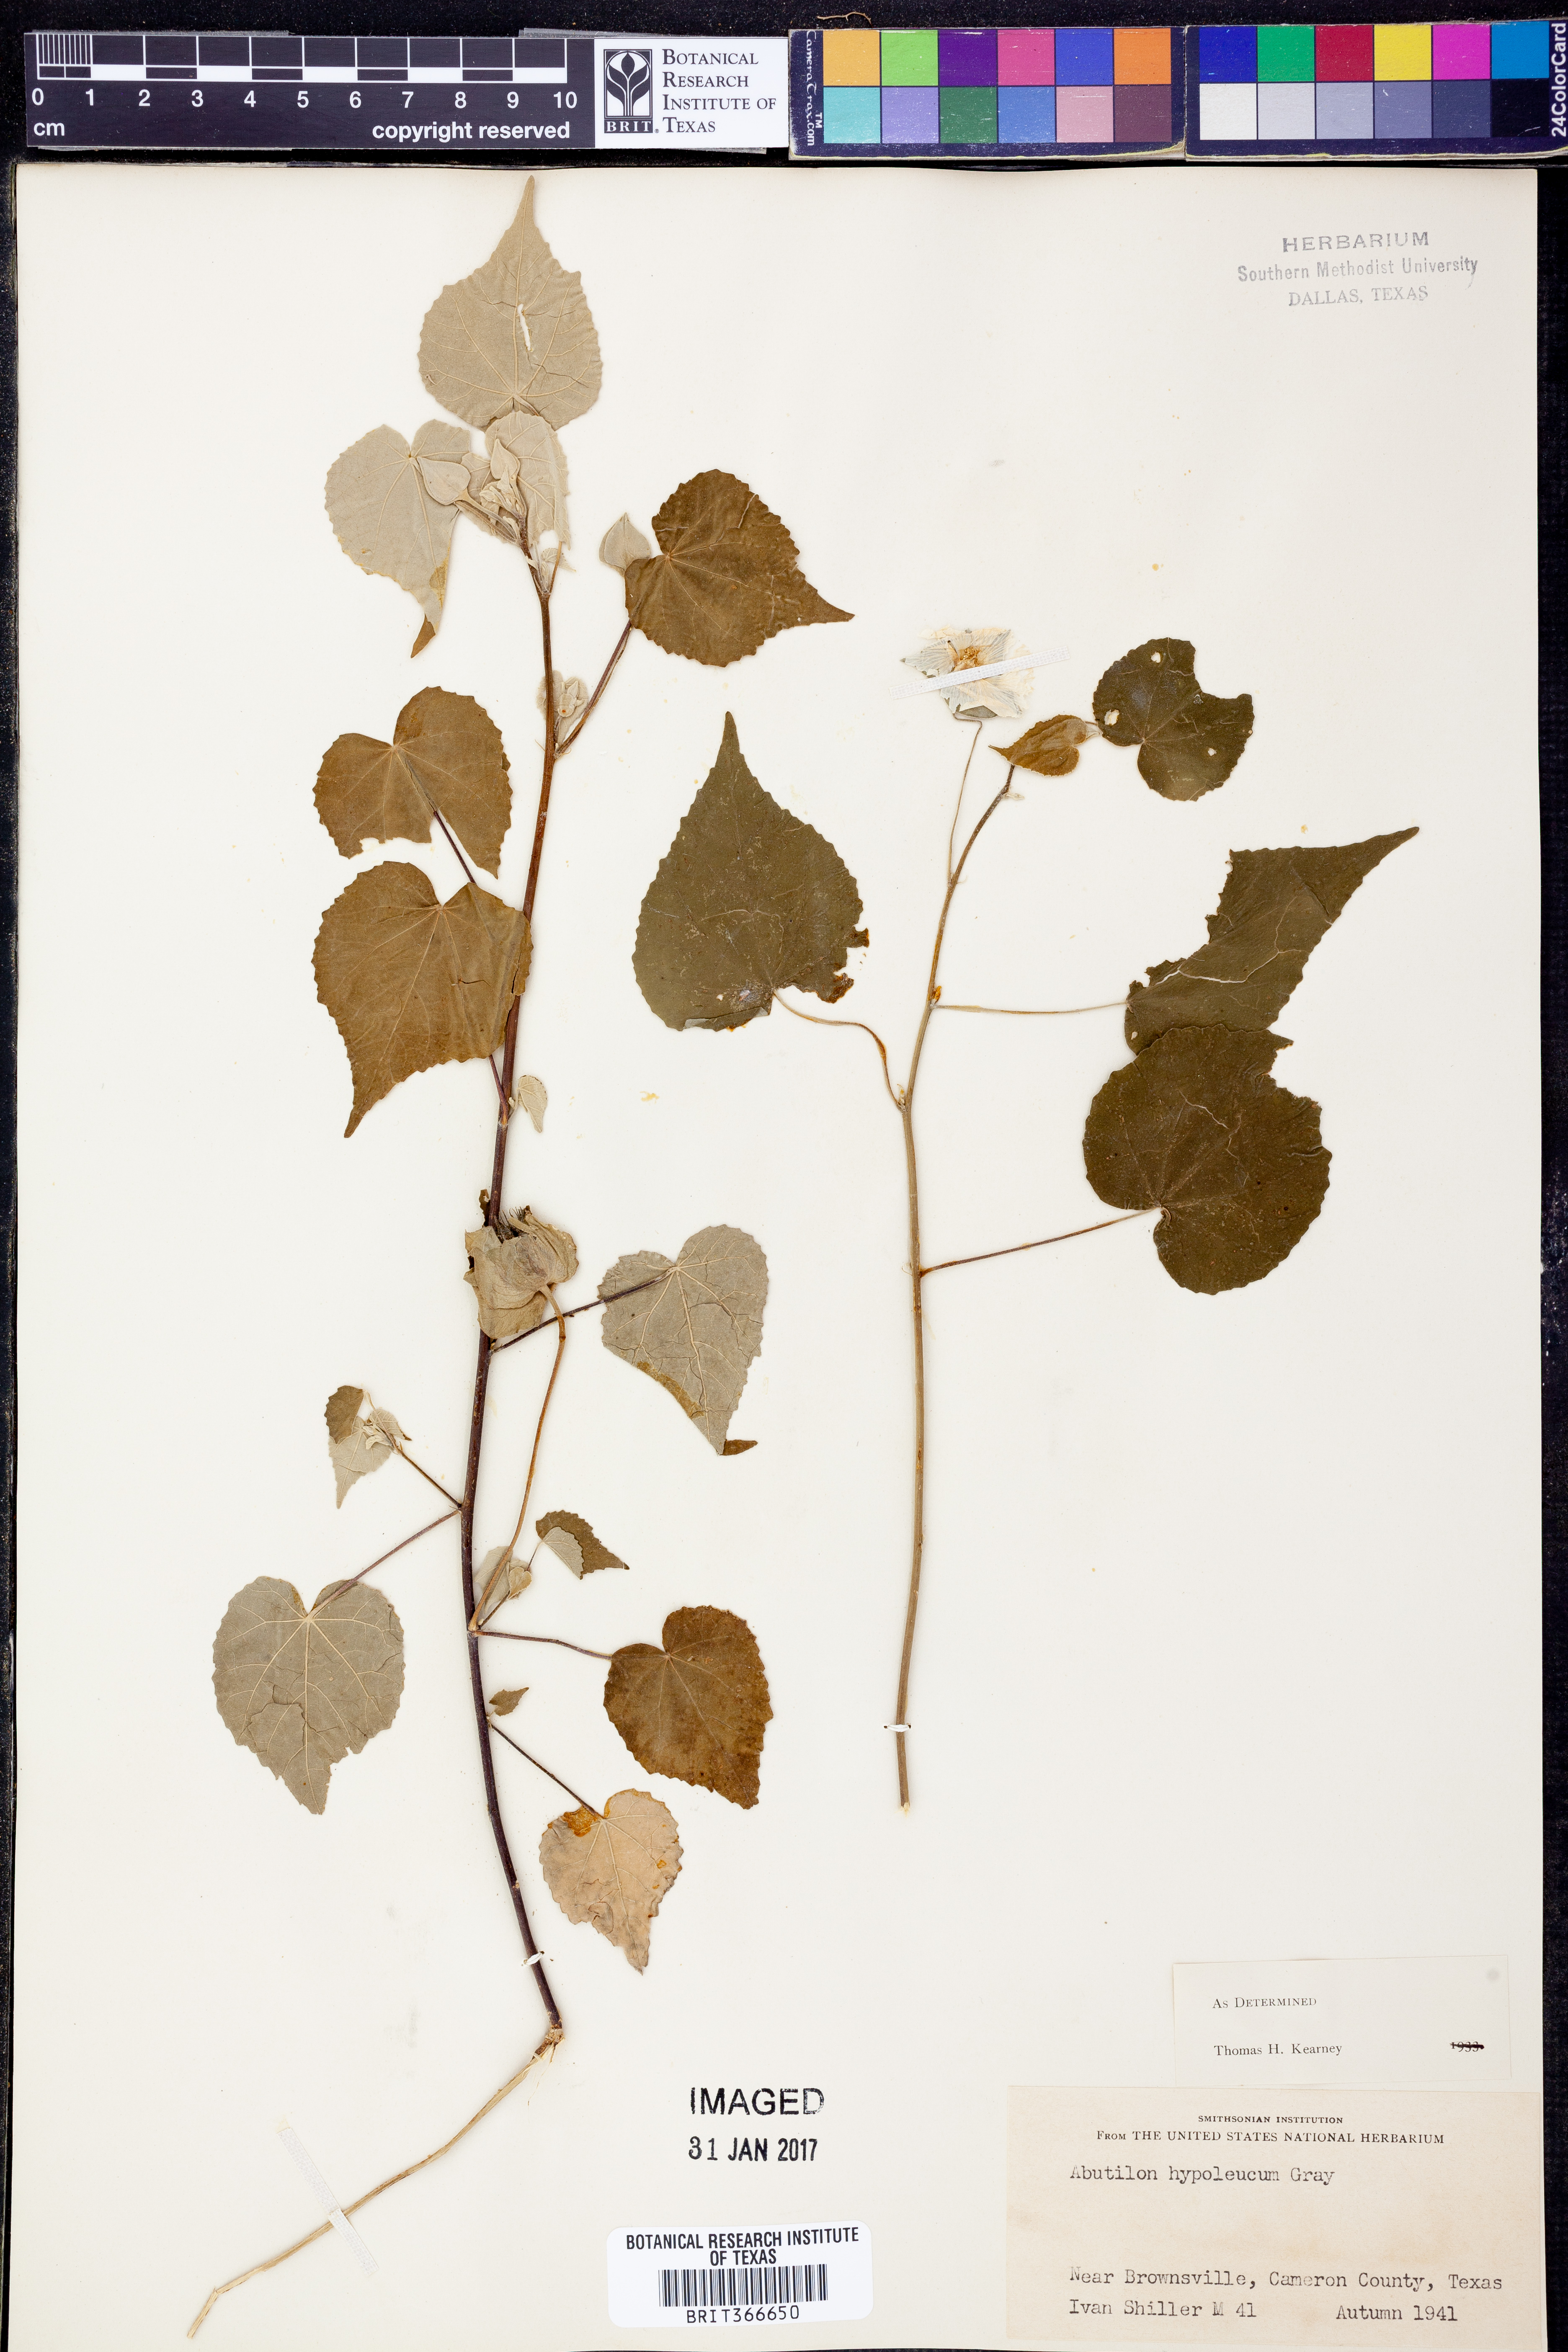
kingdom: Plantae
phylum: Tracheophyta
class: Magnoliopsida
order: Malvales
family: Malvaceae
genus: Abutilon
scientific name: Abutilon hypoleucum
